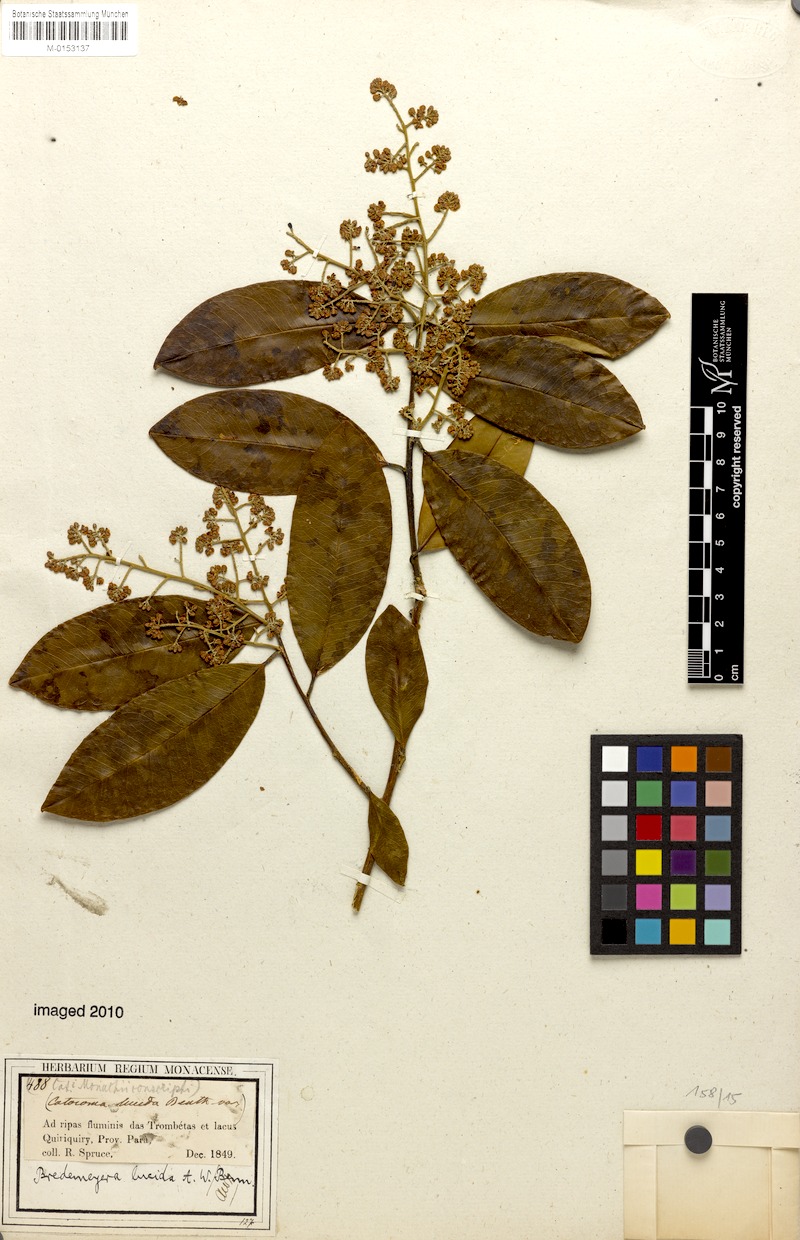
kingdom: Plantae
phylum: Tracheophyta
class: Magnoliopsida
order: Fabales
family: Polygalaceae
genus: Bredemeyera
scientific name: Bredemeyera lucida
